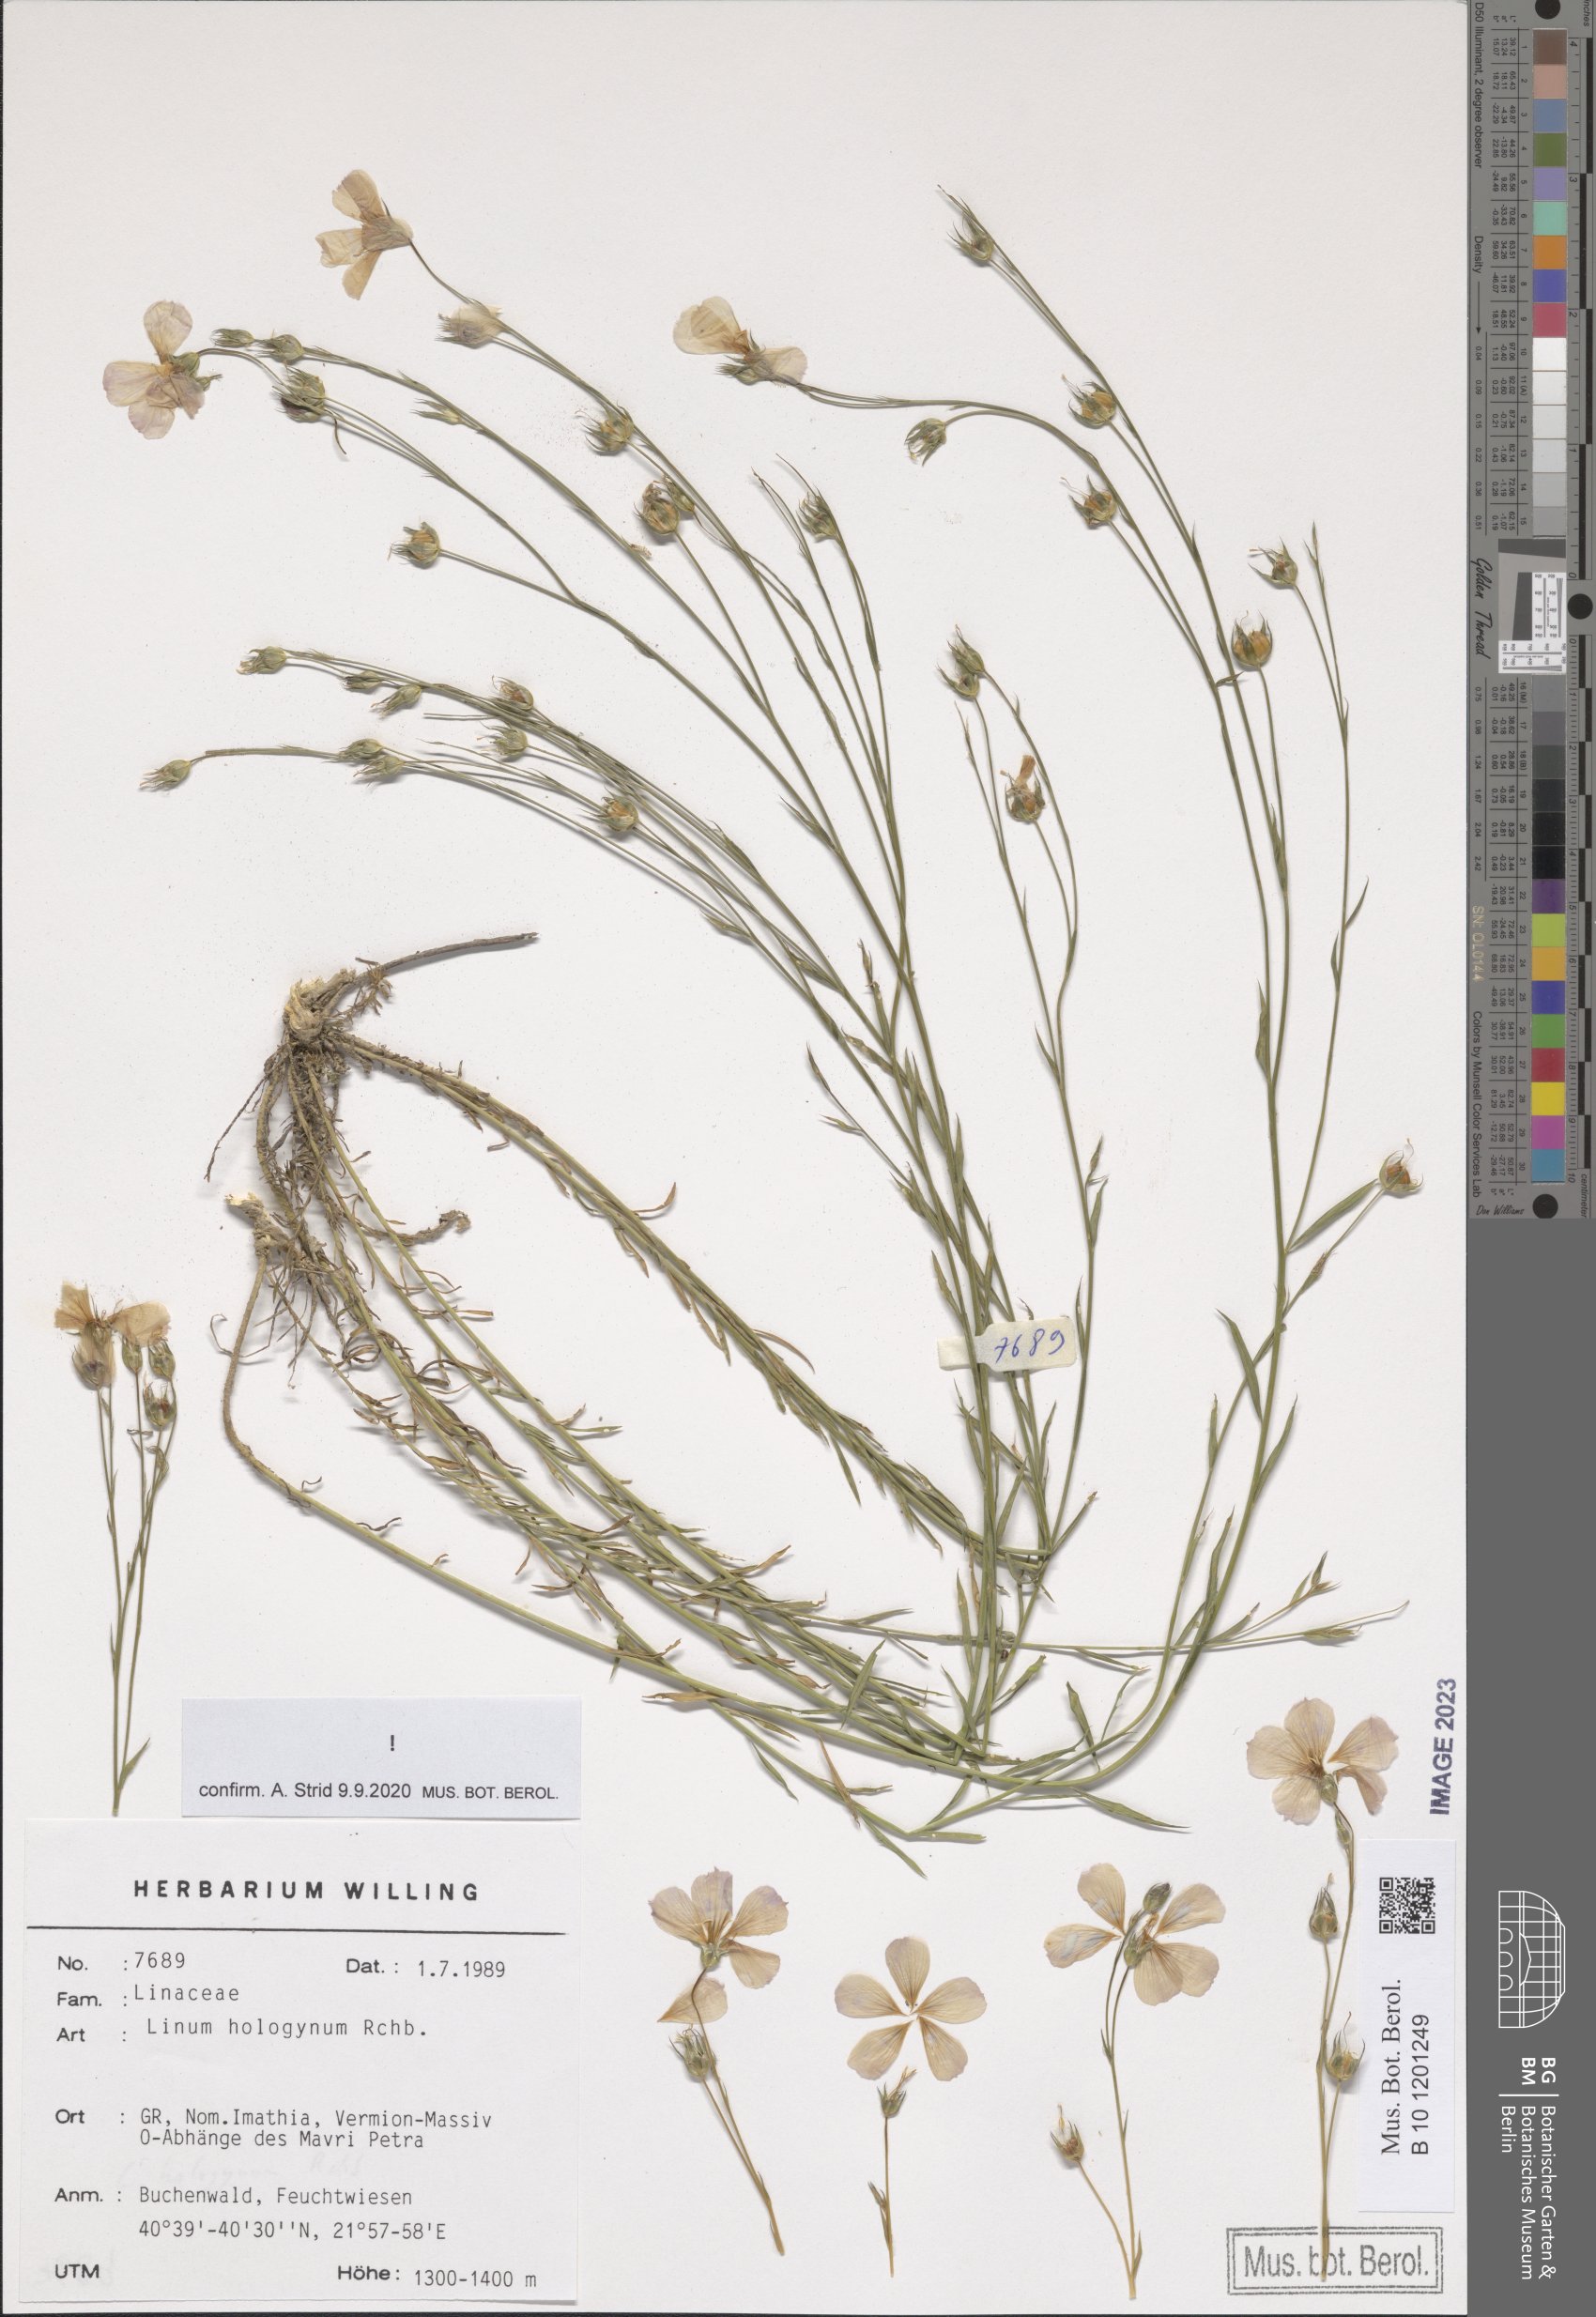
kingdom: Plantae
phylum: Tracheophyta
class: Magnoliopsida
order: Malpighiales
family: Linaceae
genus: Linum
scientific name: Linum hologynum
